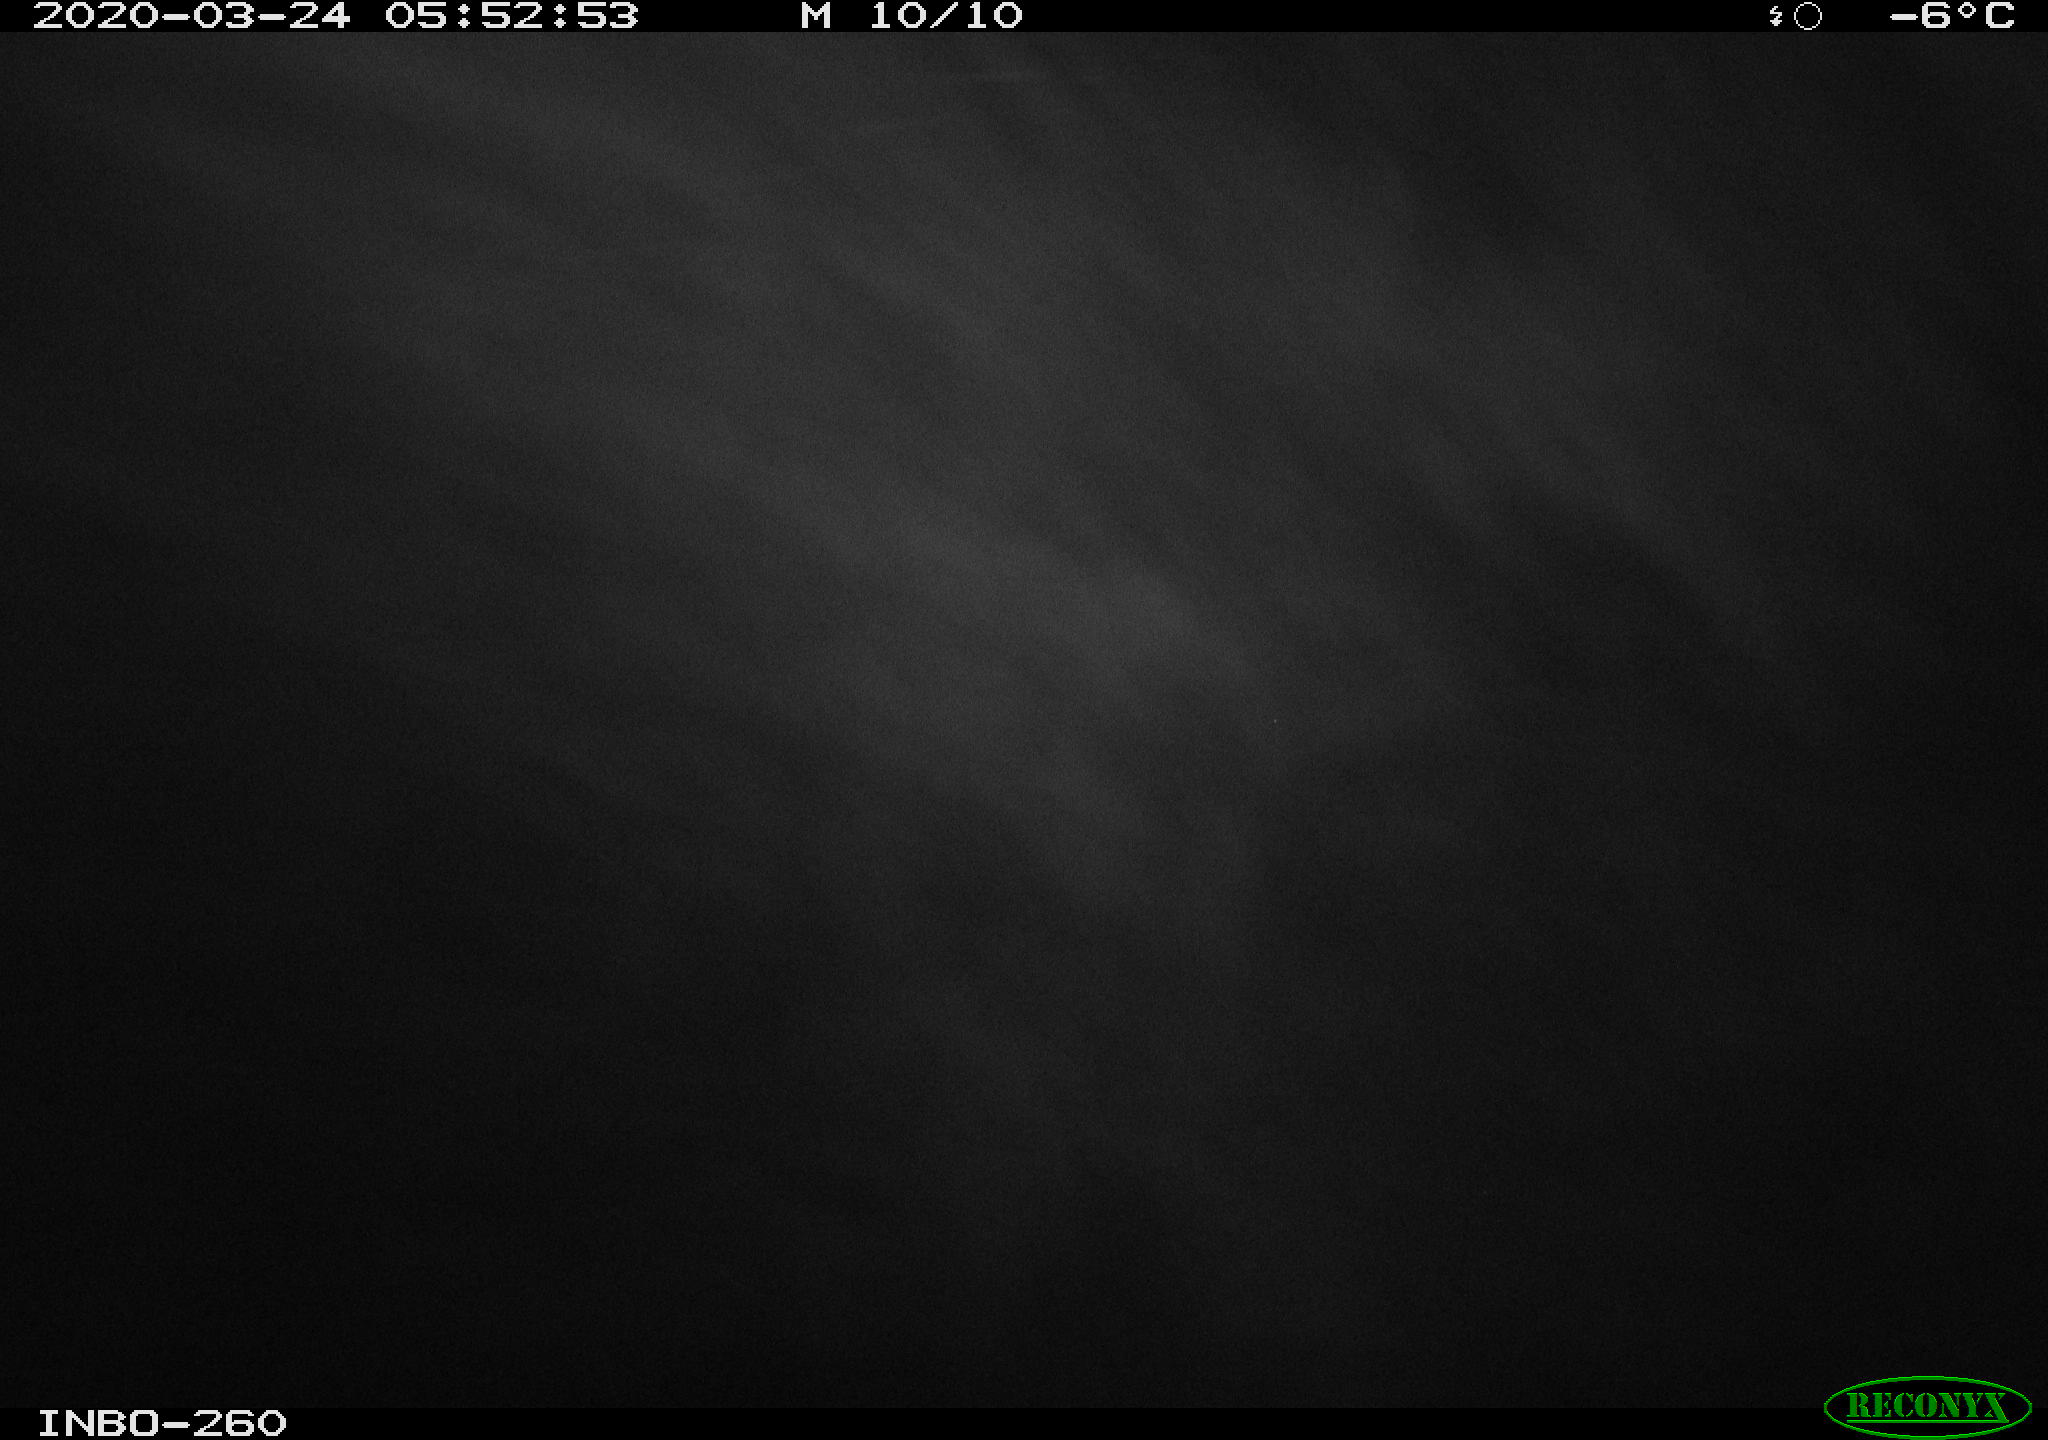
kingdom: Animalia
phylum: Chordata
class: Aves
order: Anseriformes
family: Anatidae
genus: Anas
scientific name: Anas platyrhynchos
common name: Mallard
